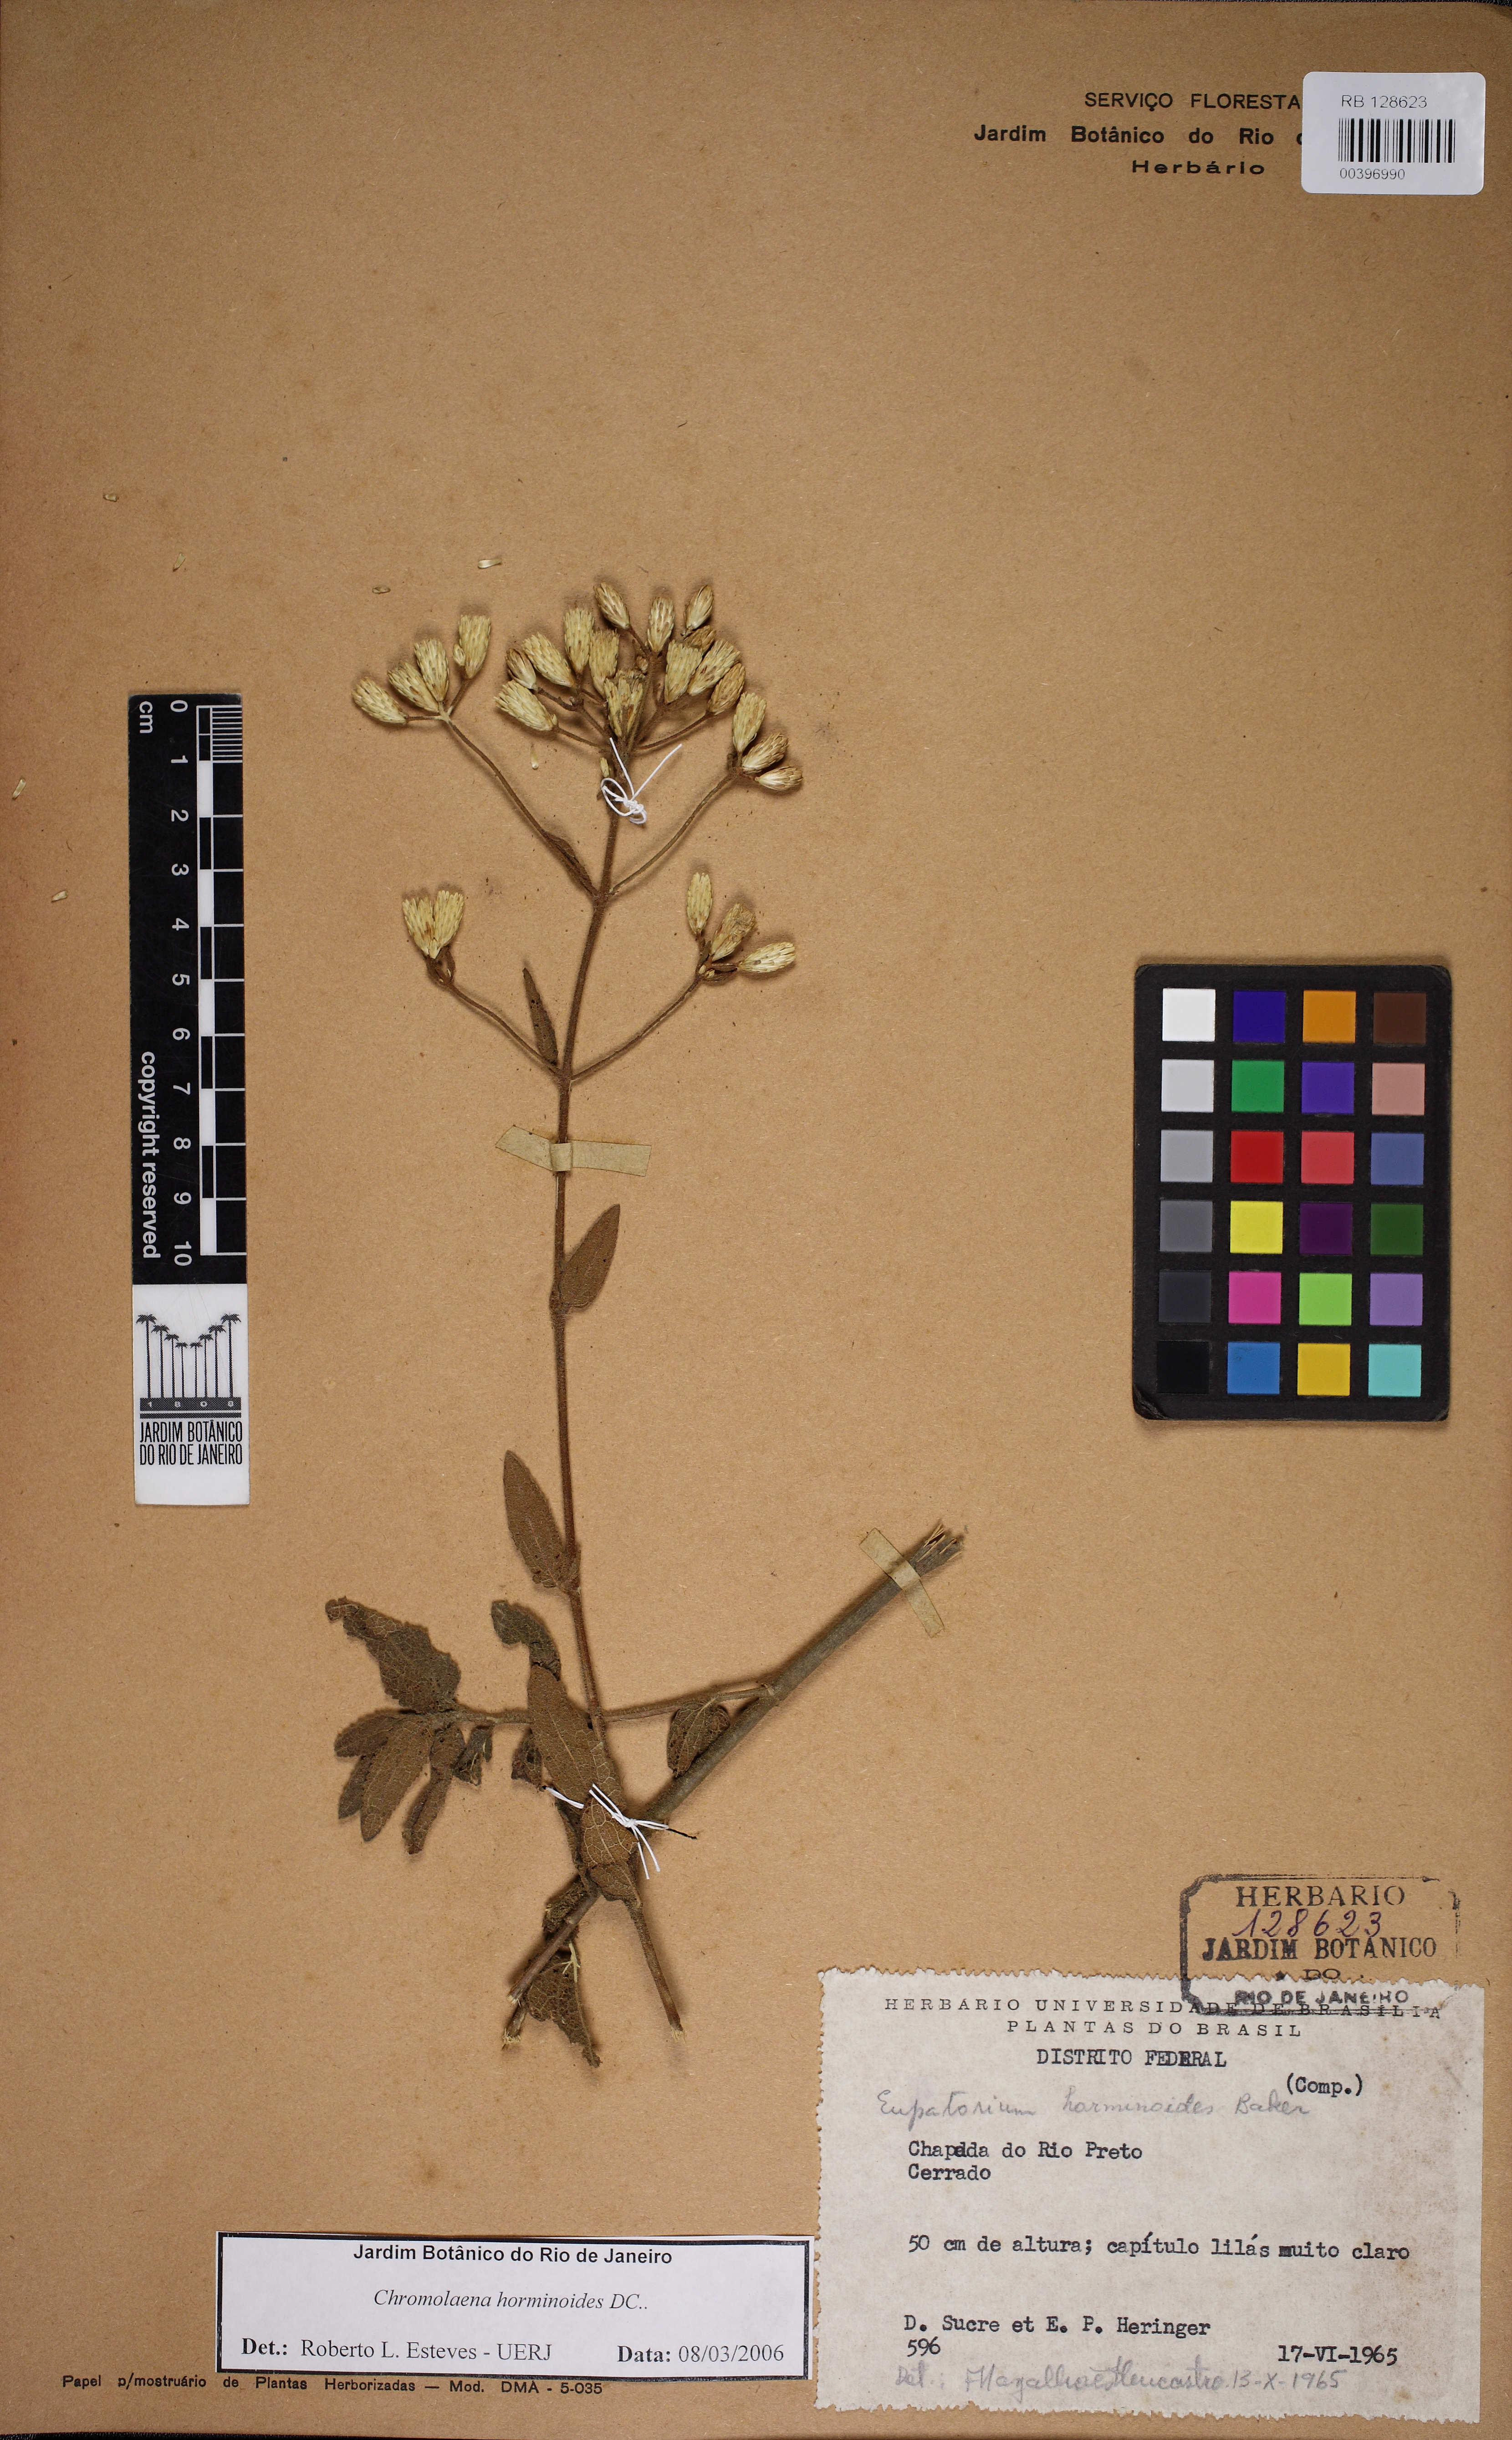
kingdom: Plantae
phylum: Tracheophyta
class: Magnoliopsida
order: Asterales
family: Asteraceae
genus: Chromolaena
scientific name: Chromolaena horminoides
